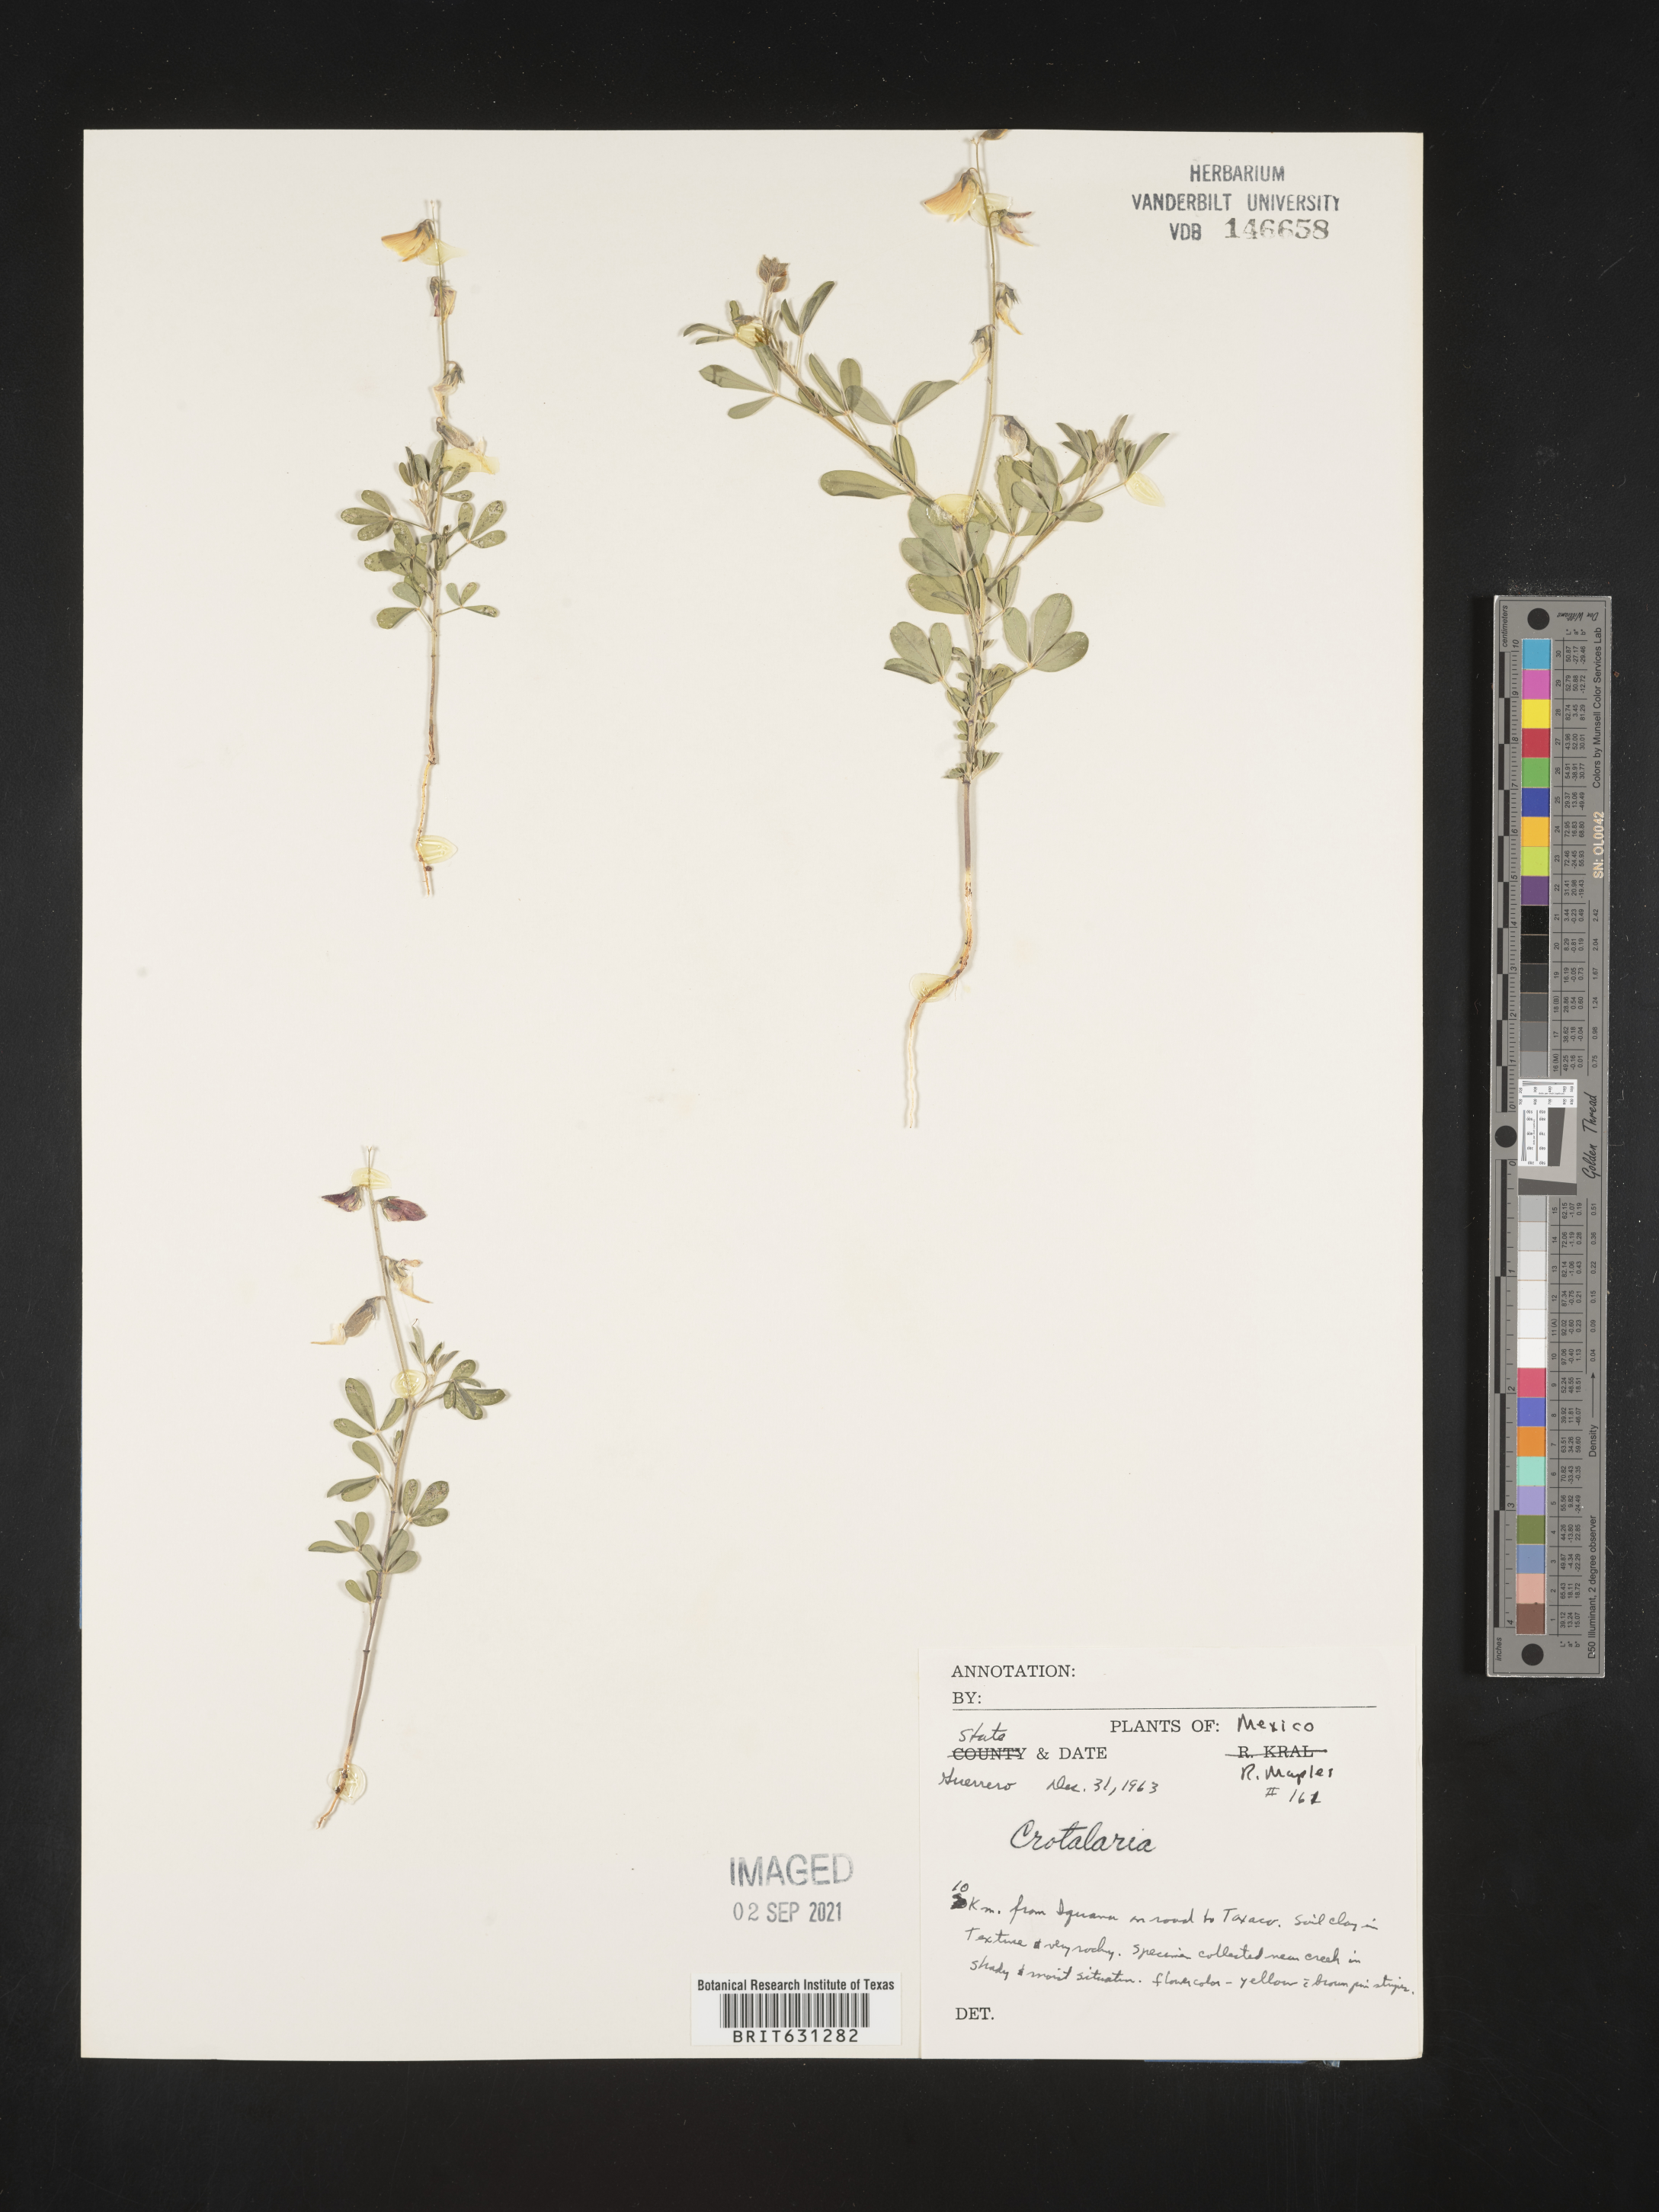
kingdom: Plantae
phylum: Tracheophyta
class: Magnoliopsida
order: Fabales
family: Fabaceae
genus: Crotalaria
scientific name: Crotalaria
